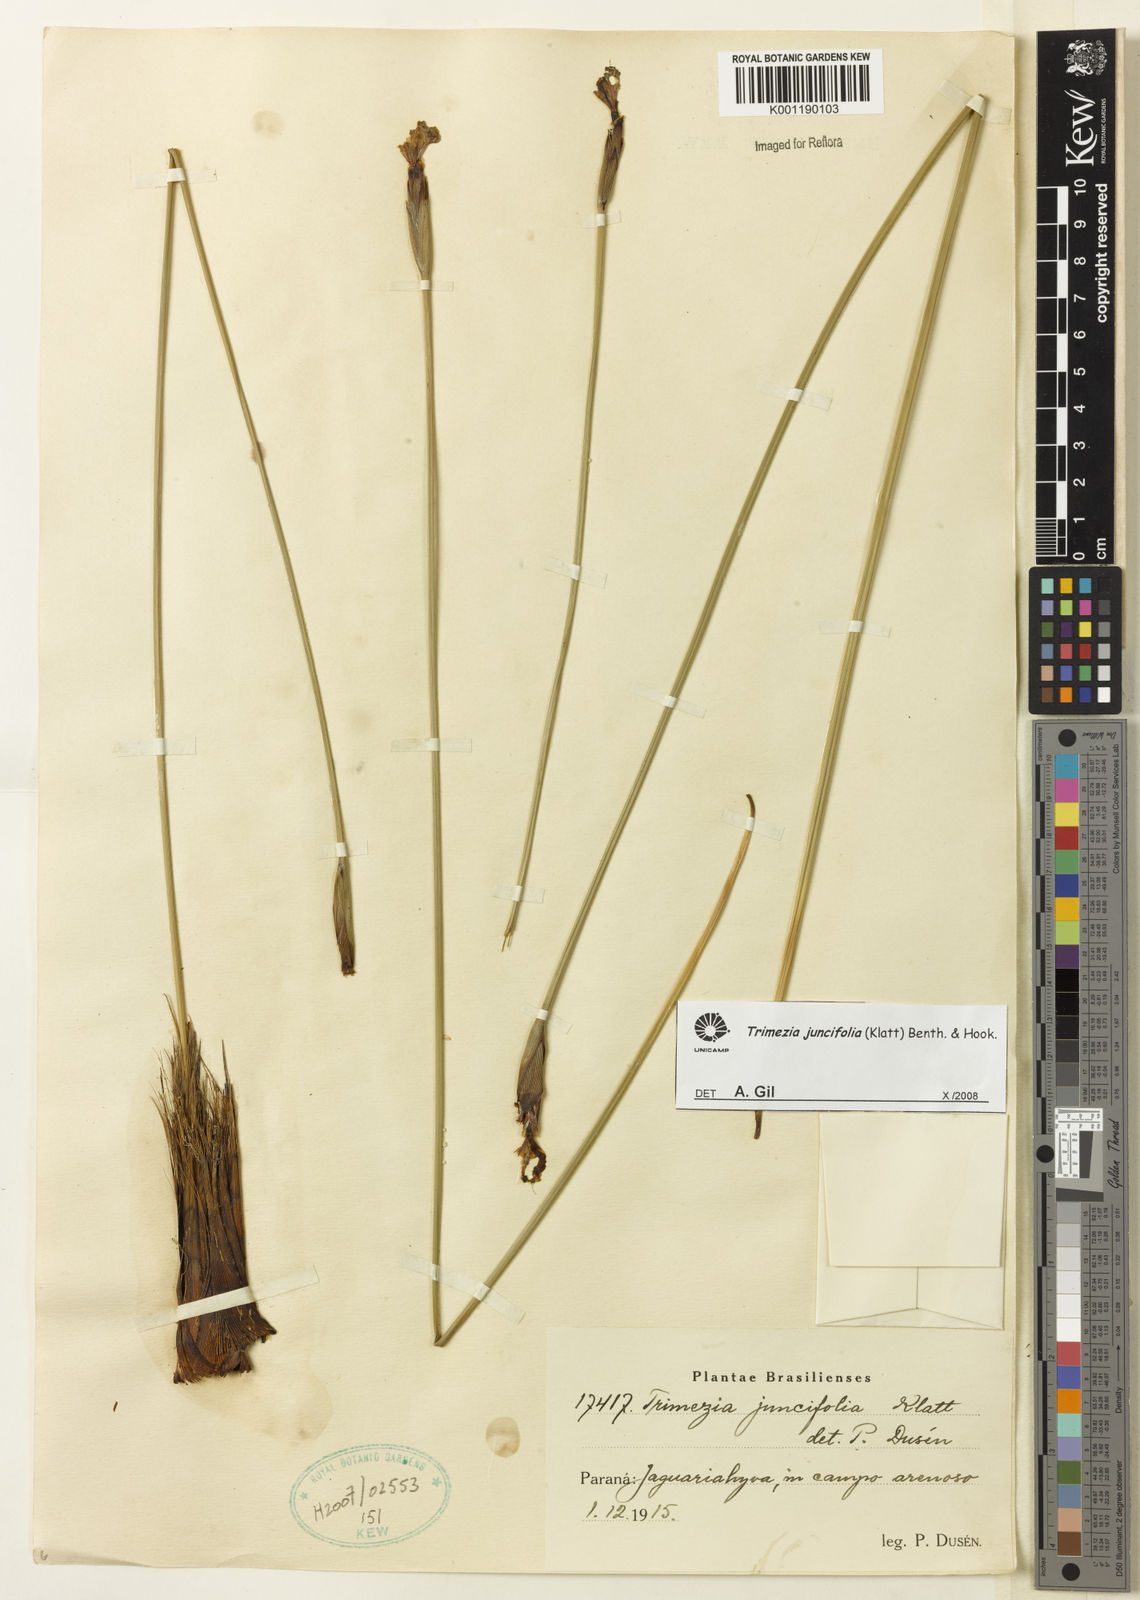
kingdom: Plantae
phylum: Tracheophyta
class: Liliopsida
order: Asparagales
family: Iridaceae
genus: Trimezia
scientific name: Trimezia juncifolia
